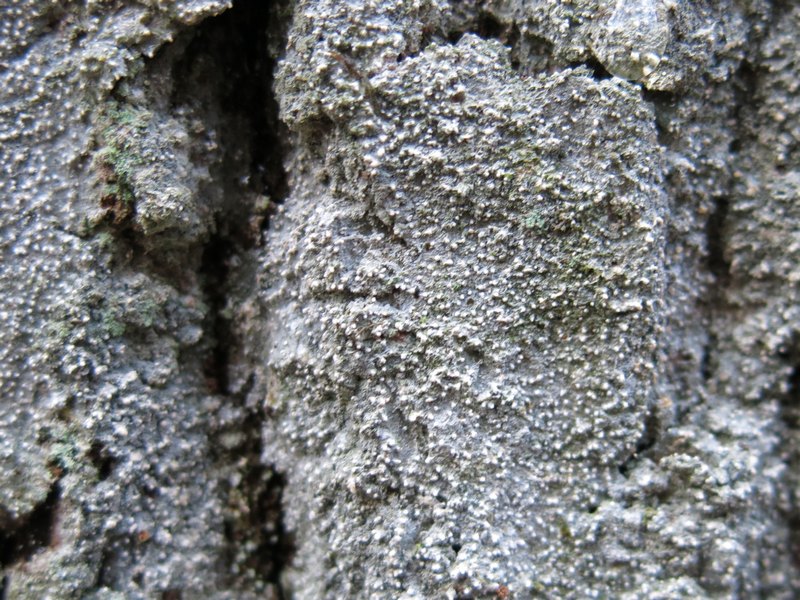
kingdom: Fungi
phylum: Ascomycota
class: Lecanoromycetes
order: Pertusariales
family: Ochrolechiaceae
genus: Ochrolechia
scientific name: Ochrolechia subviridis
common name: vorte-blegskivelav
